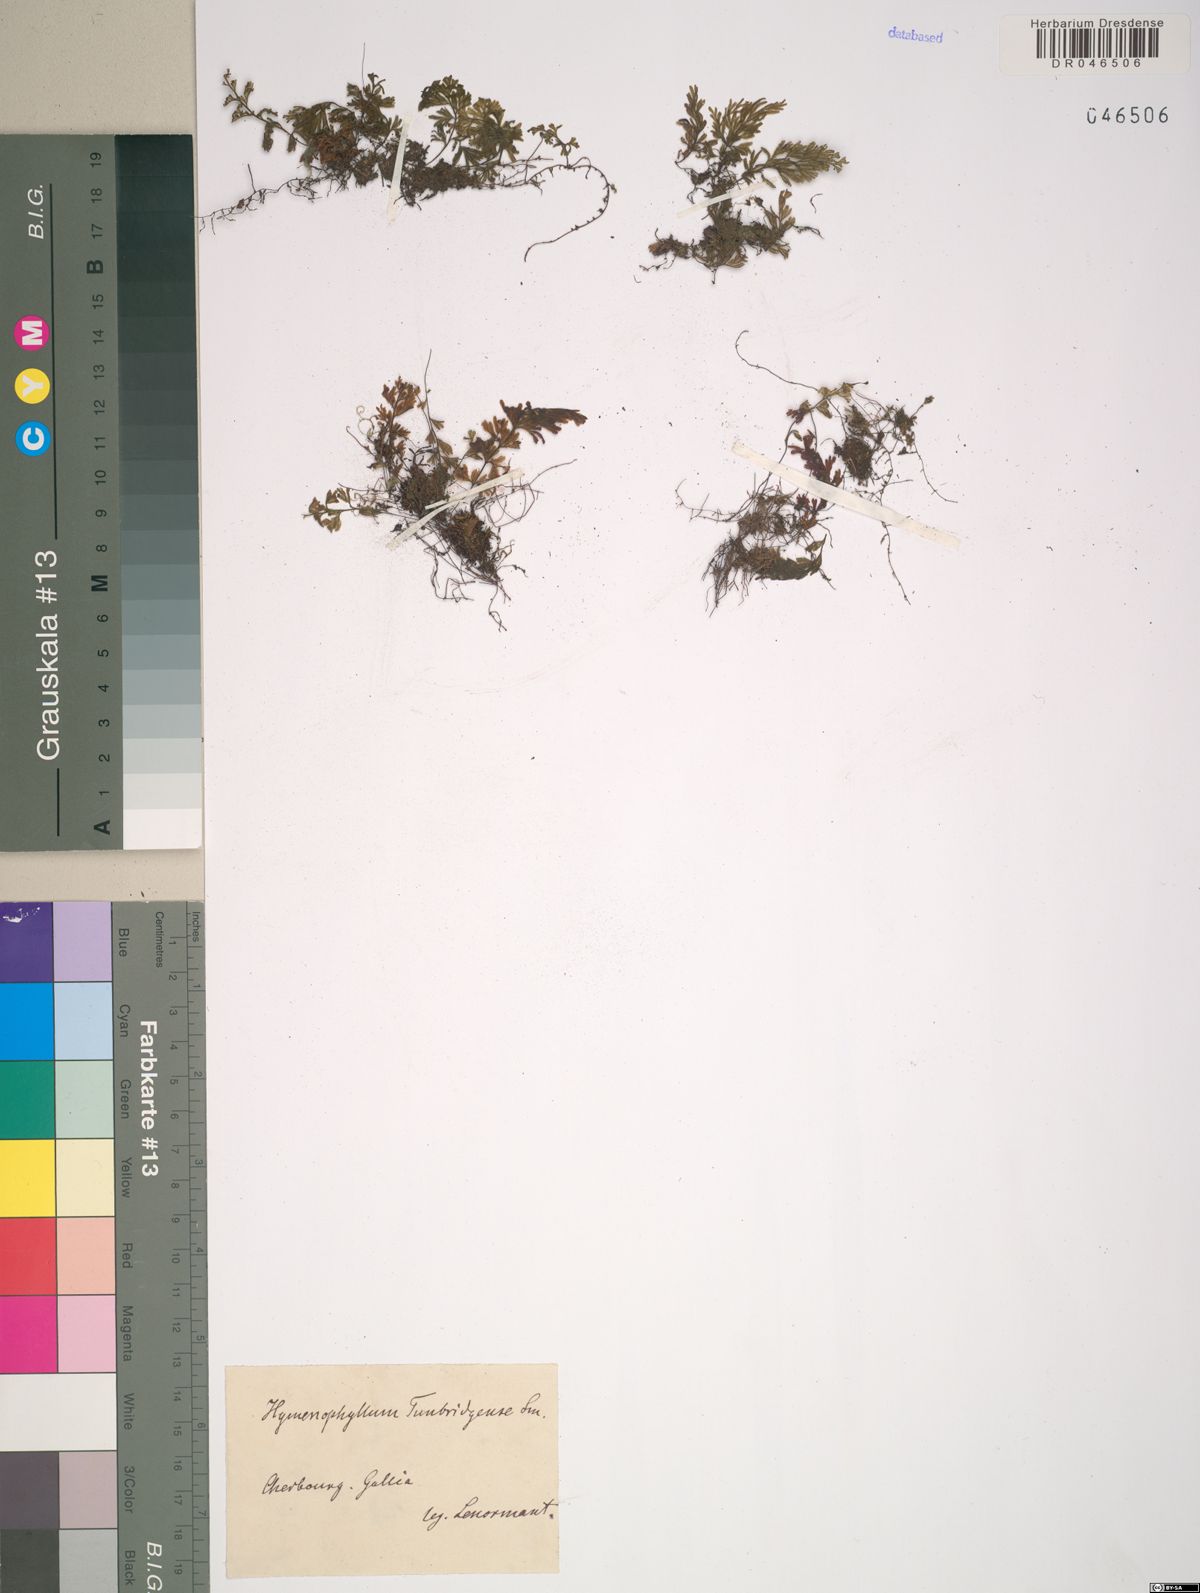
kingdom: Plantae
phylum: Tracheophyta
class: Polypodiopsida
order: Hymenophyllales
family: Hymenophyllaceae
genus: Hymenophyllum
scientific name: Hymenophyllum tunbrigense
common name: Tunbridge filmy fern
